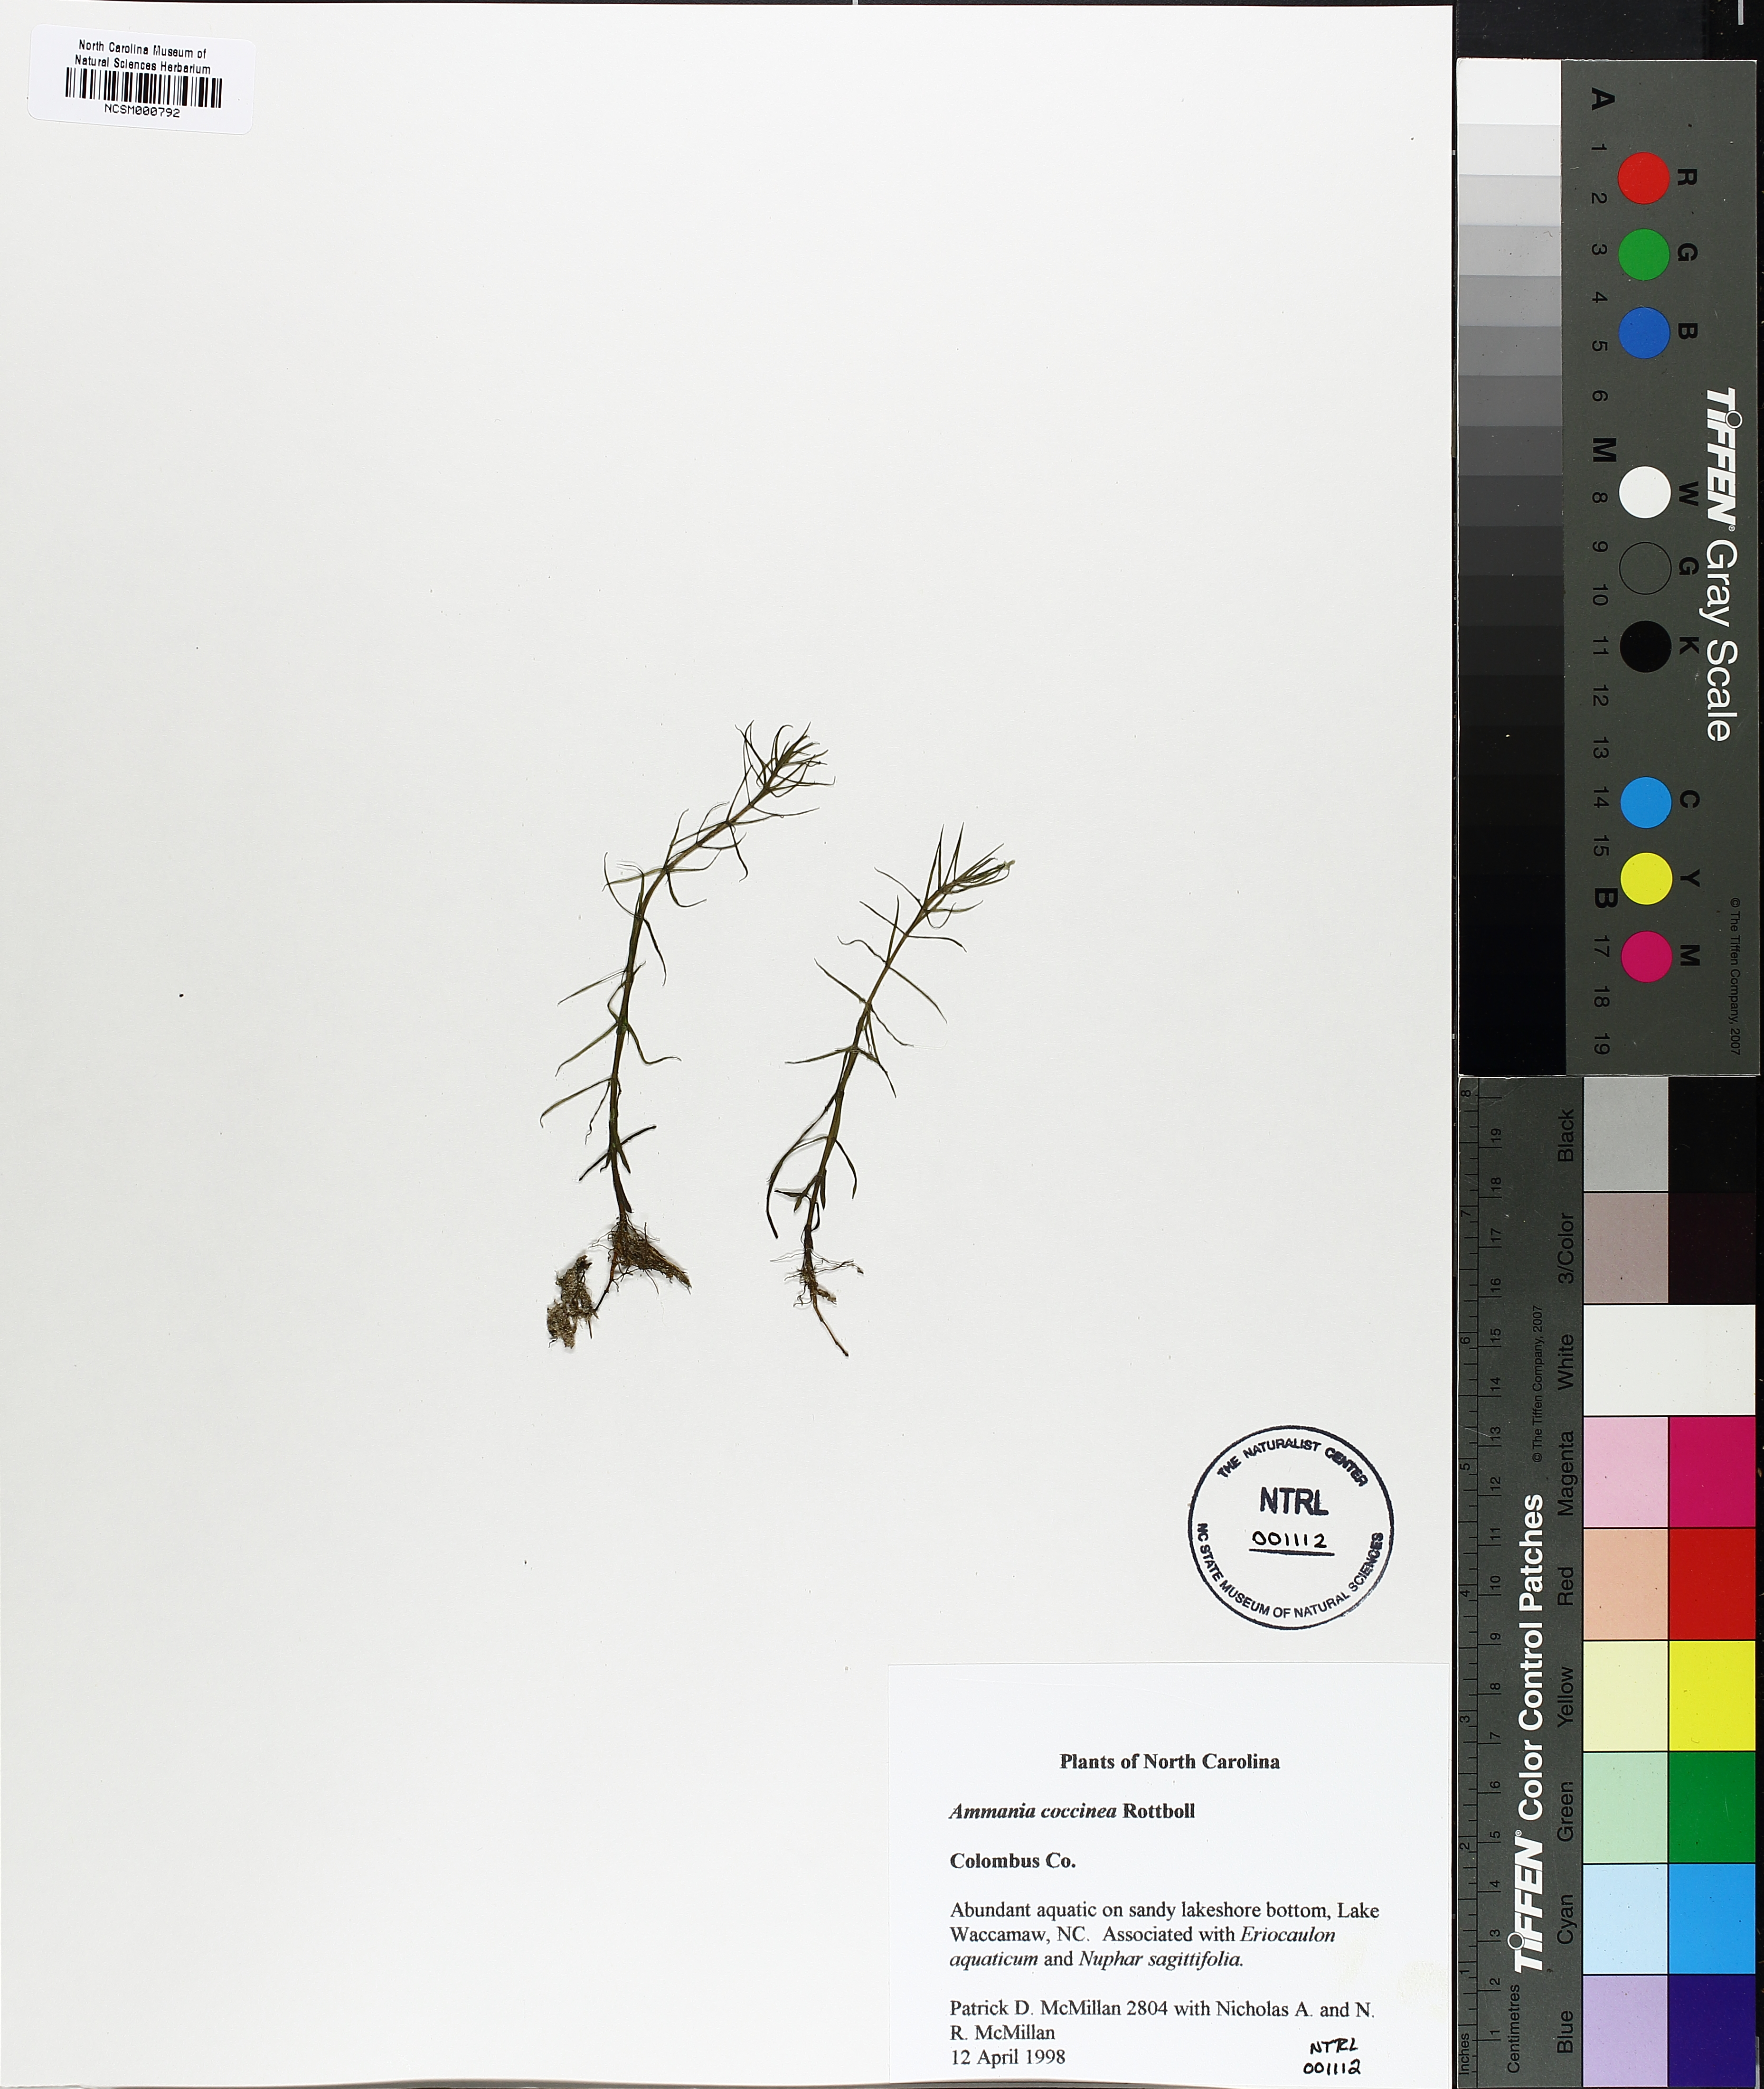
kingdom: Plantae
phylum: Tracheophyta
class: Magnoliopsida
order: Myrtales
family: Lythraceae
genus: Ammannia
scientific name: Ammannia coccinea
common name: Valley redstem
